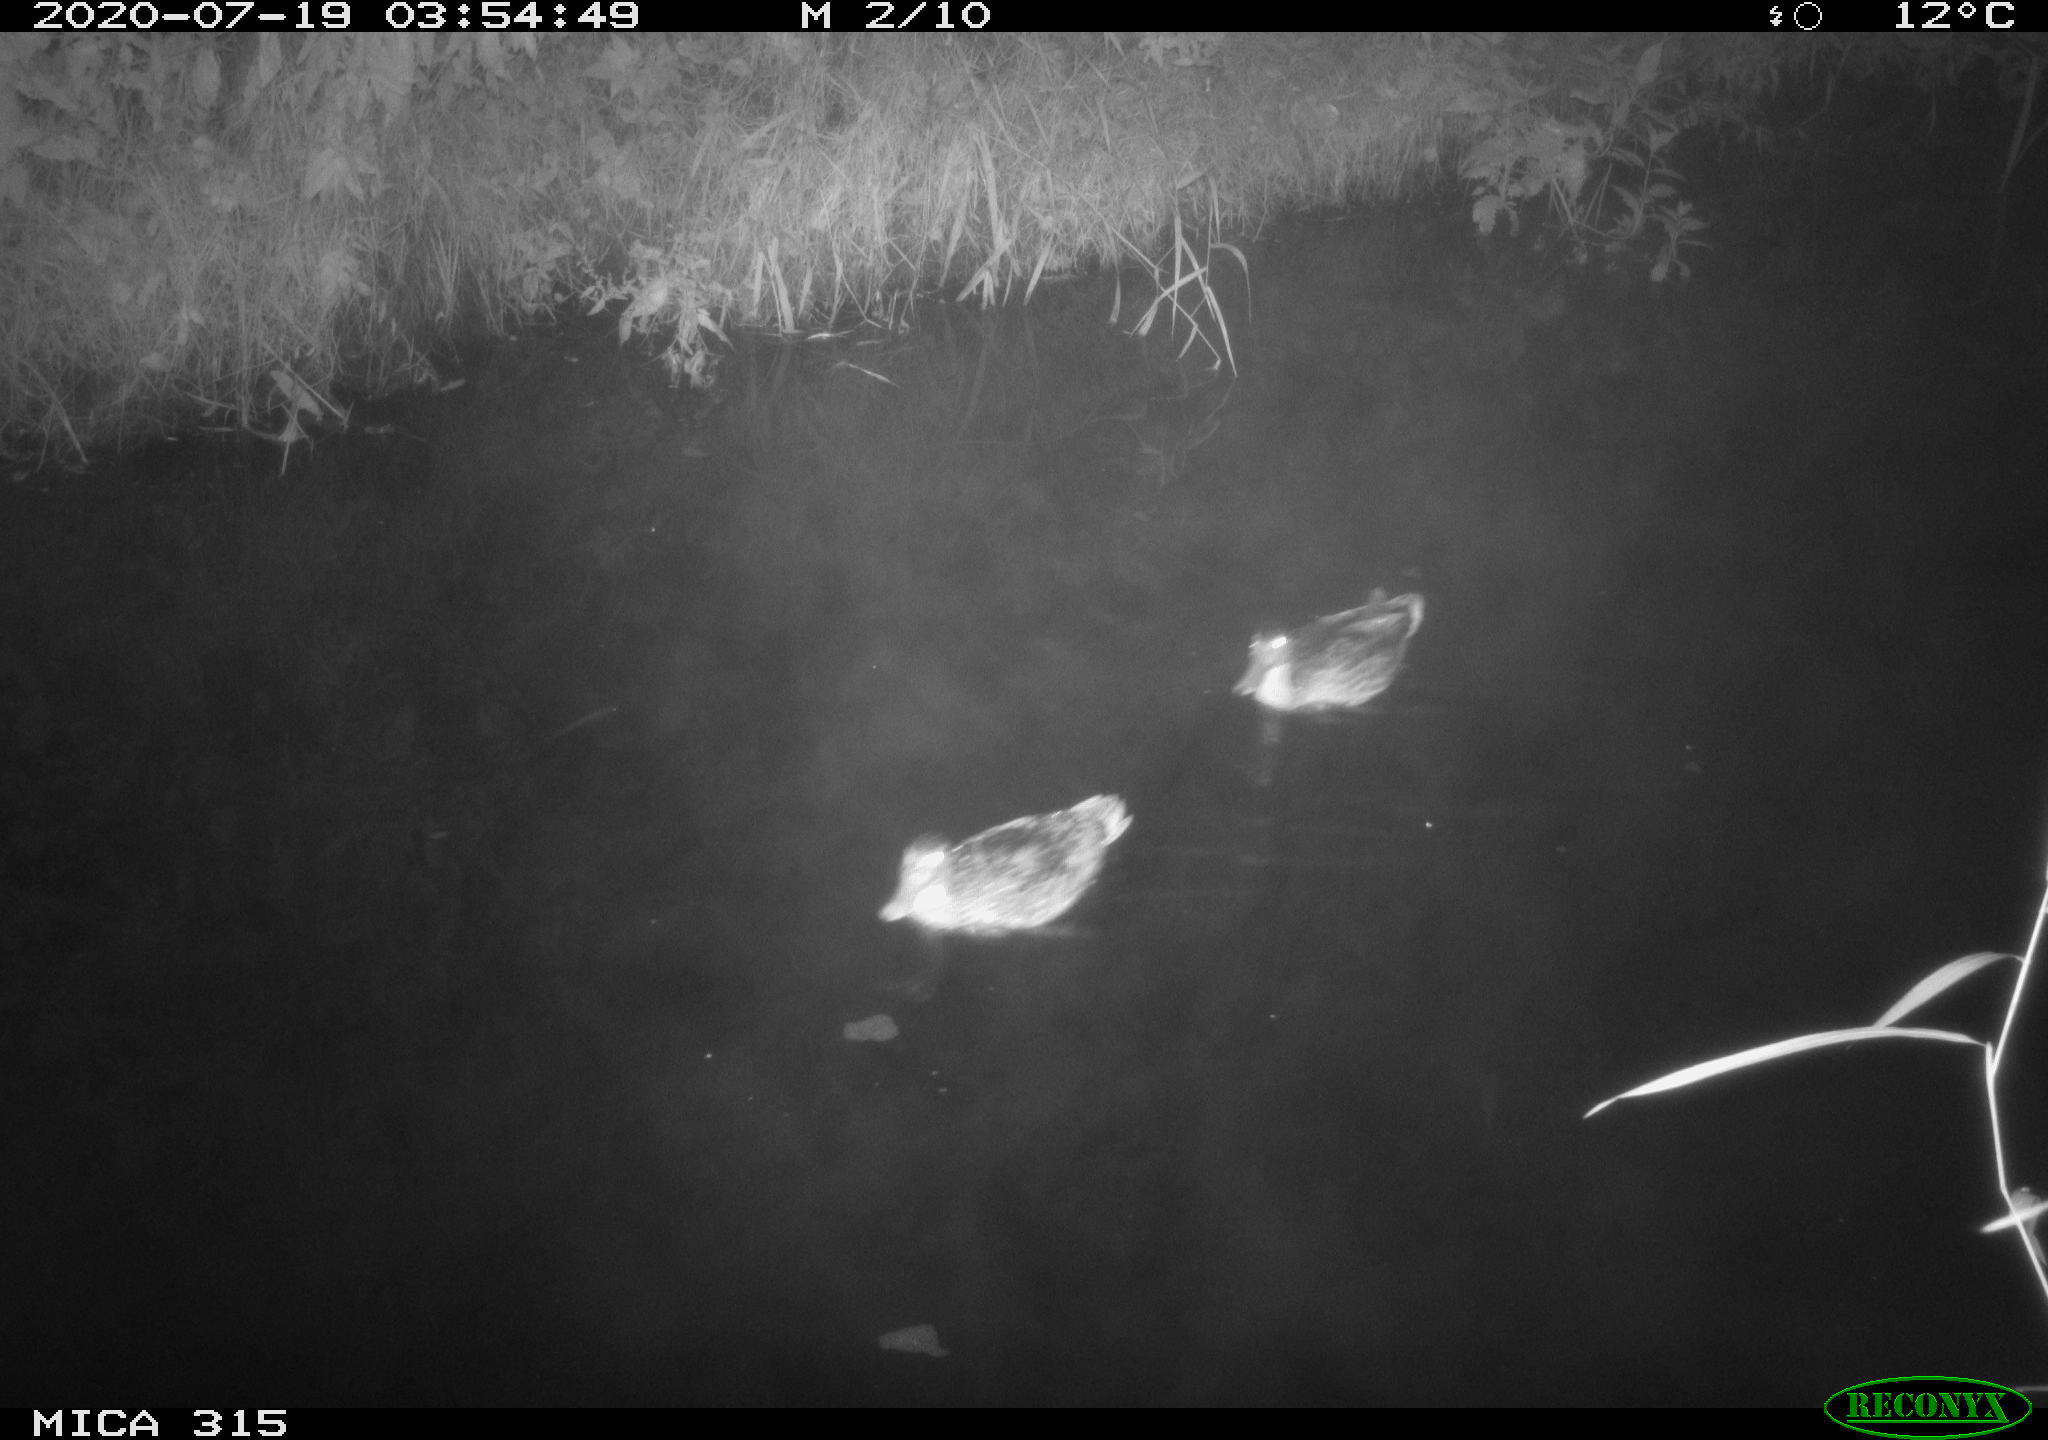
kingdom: Animalia
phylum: Chordata
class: Aves
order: Anseriformes
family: Anatidae
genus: Anas
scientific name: Anas platyrhynchos
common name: Mallard
